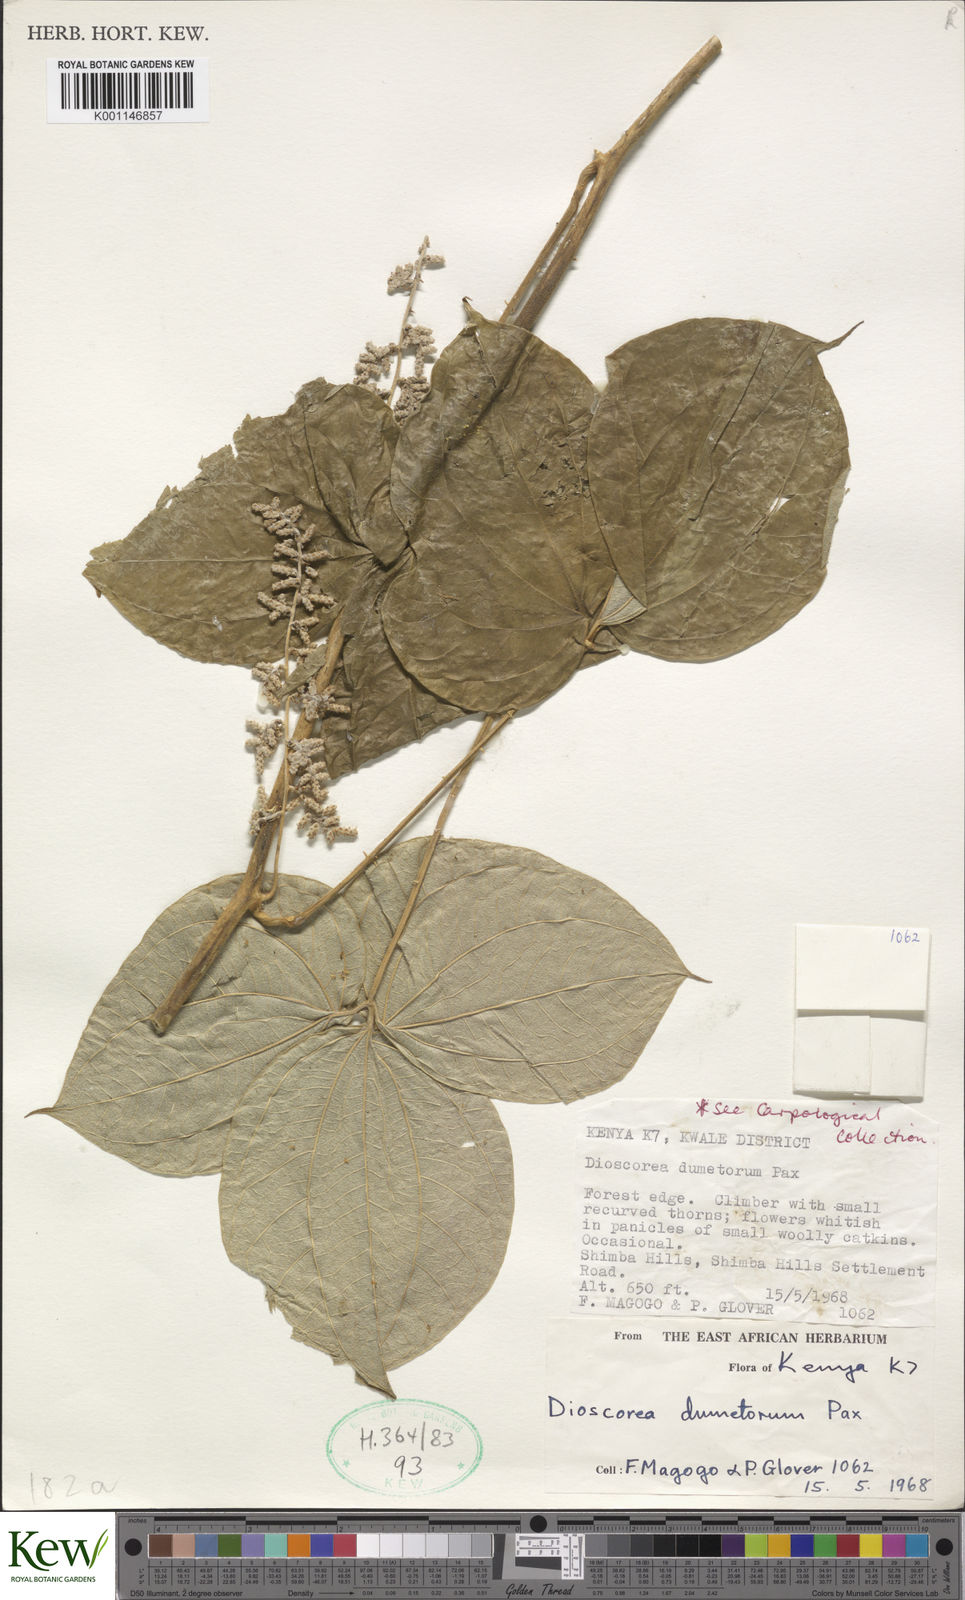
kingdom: Plantae
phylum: Tracheophyta
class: Liliopsida
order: Dioscoreales
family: Dioscoreaceae
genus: Dioscorea
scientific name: Dioscorea dumetorum
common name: African bitter yam
